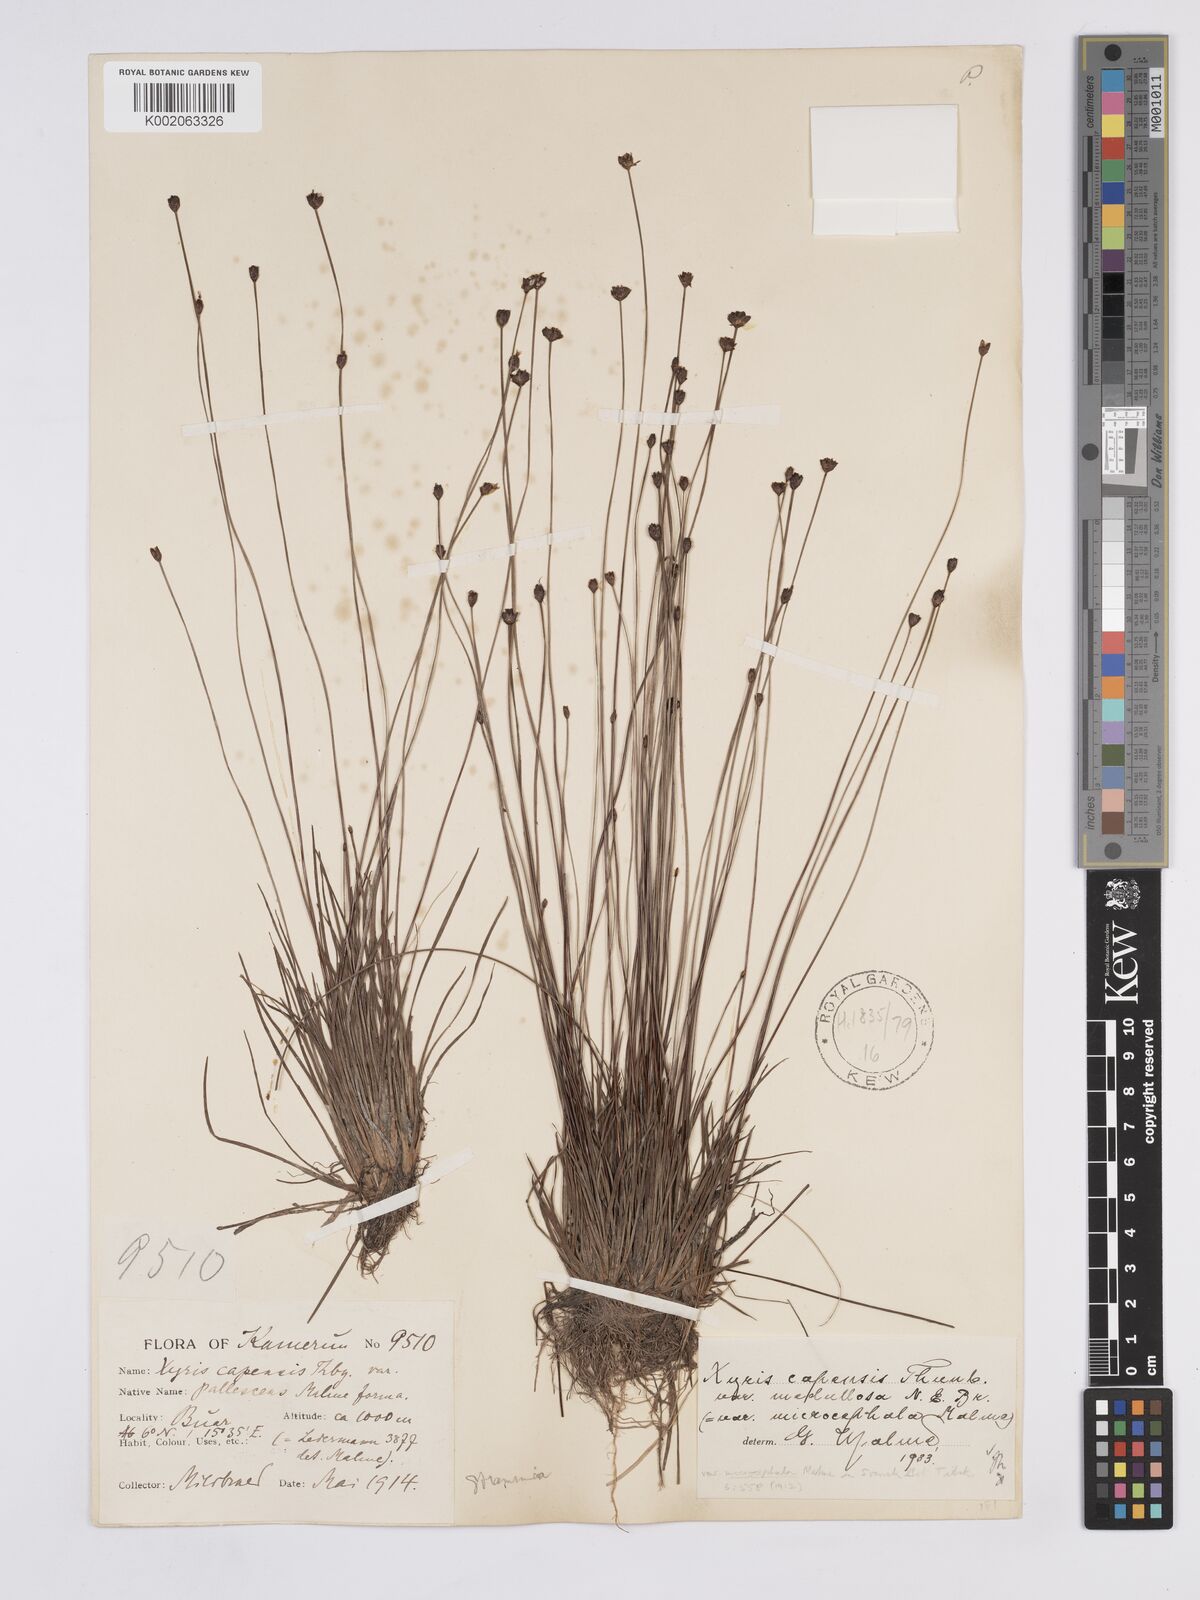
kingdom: Plantae
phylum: Tracheophyta
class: Liliopsida
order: Poales
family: Xyridaceae
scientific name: Xyridaceae
